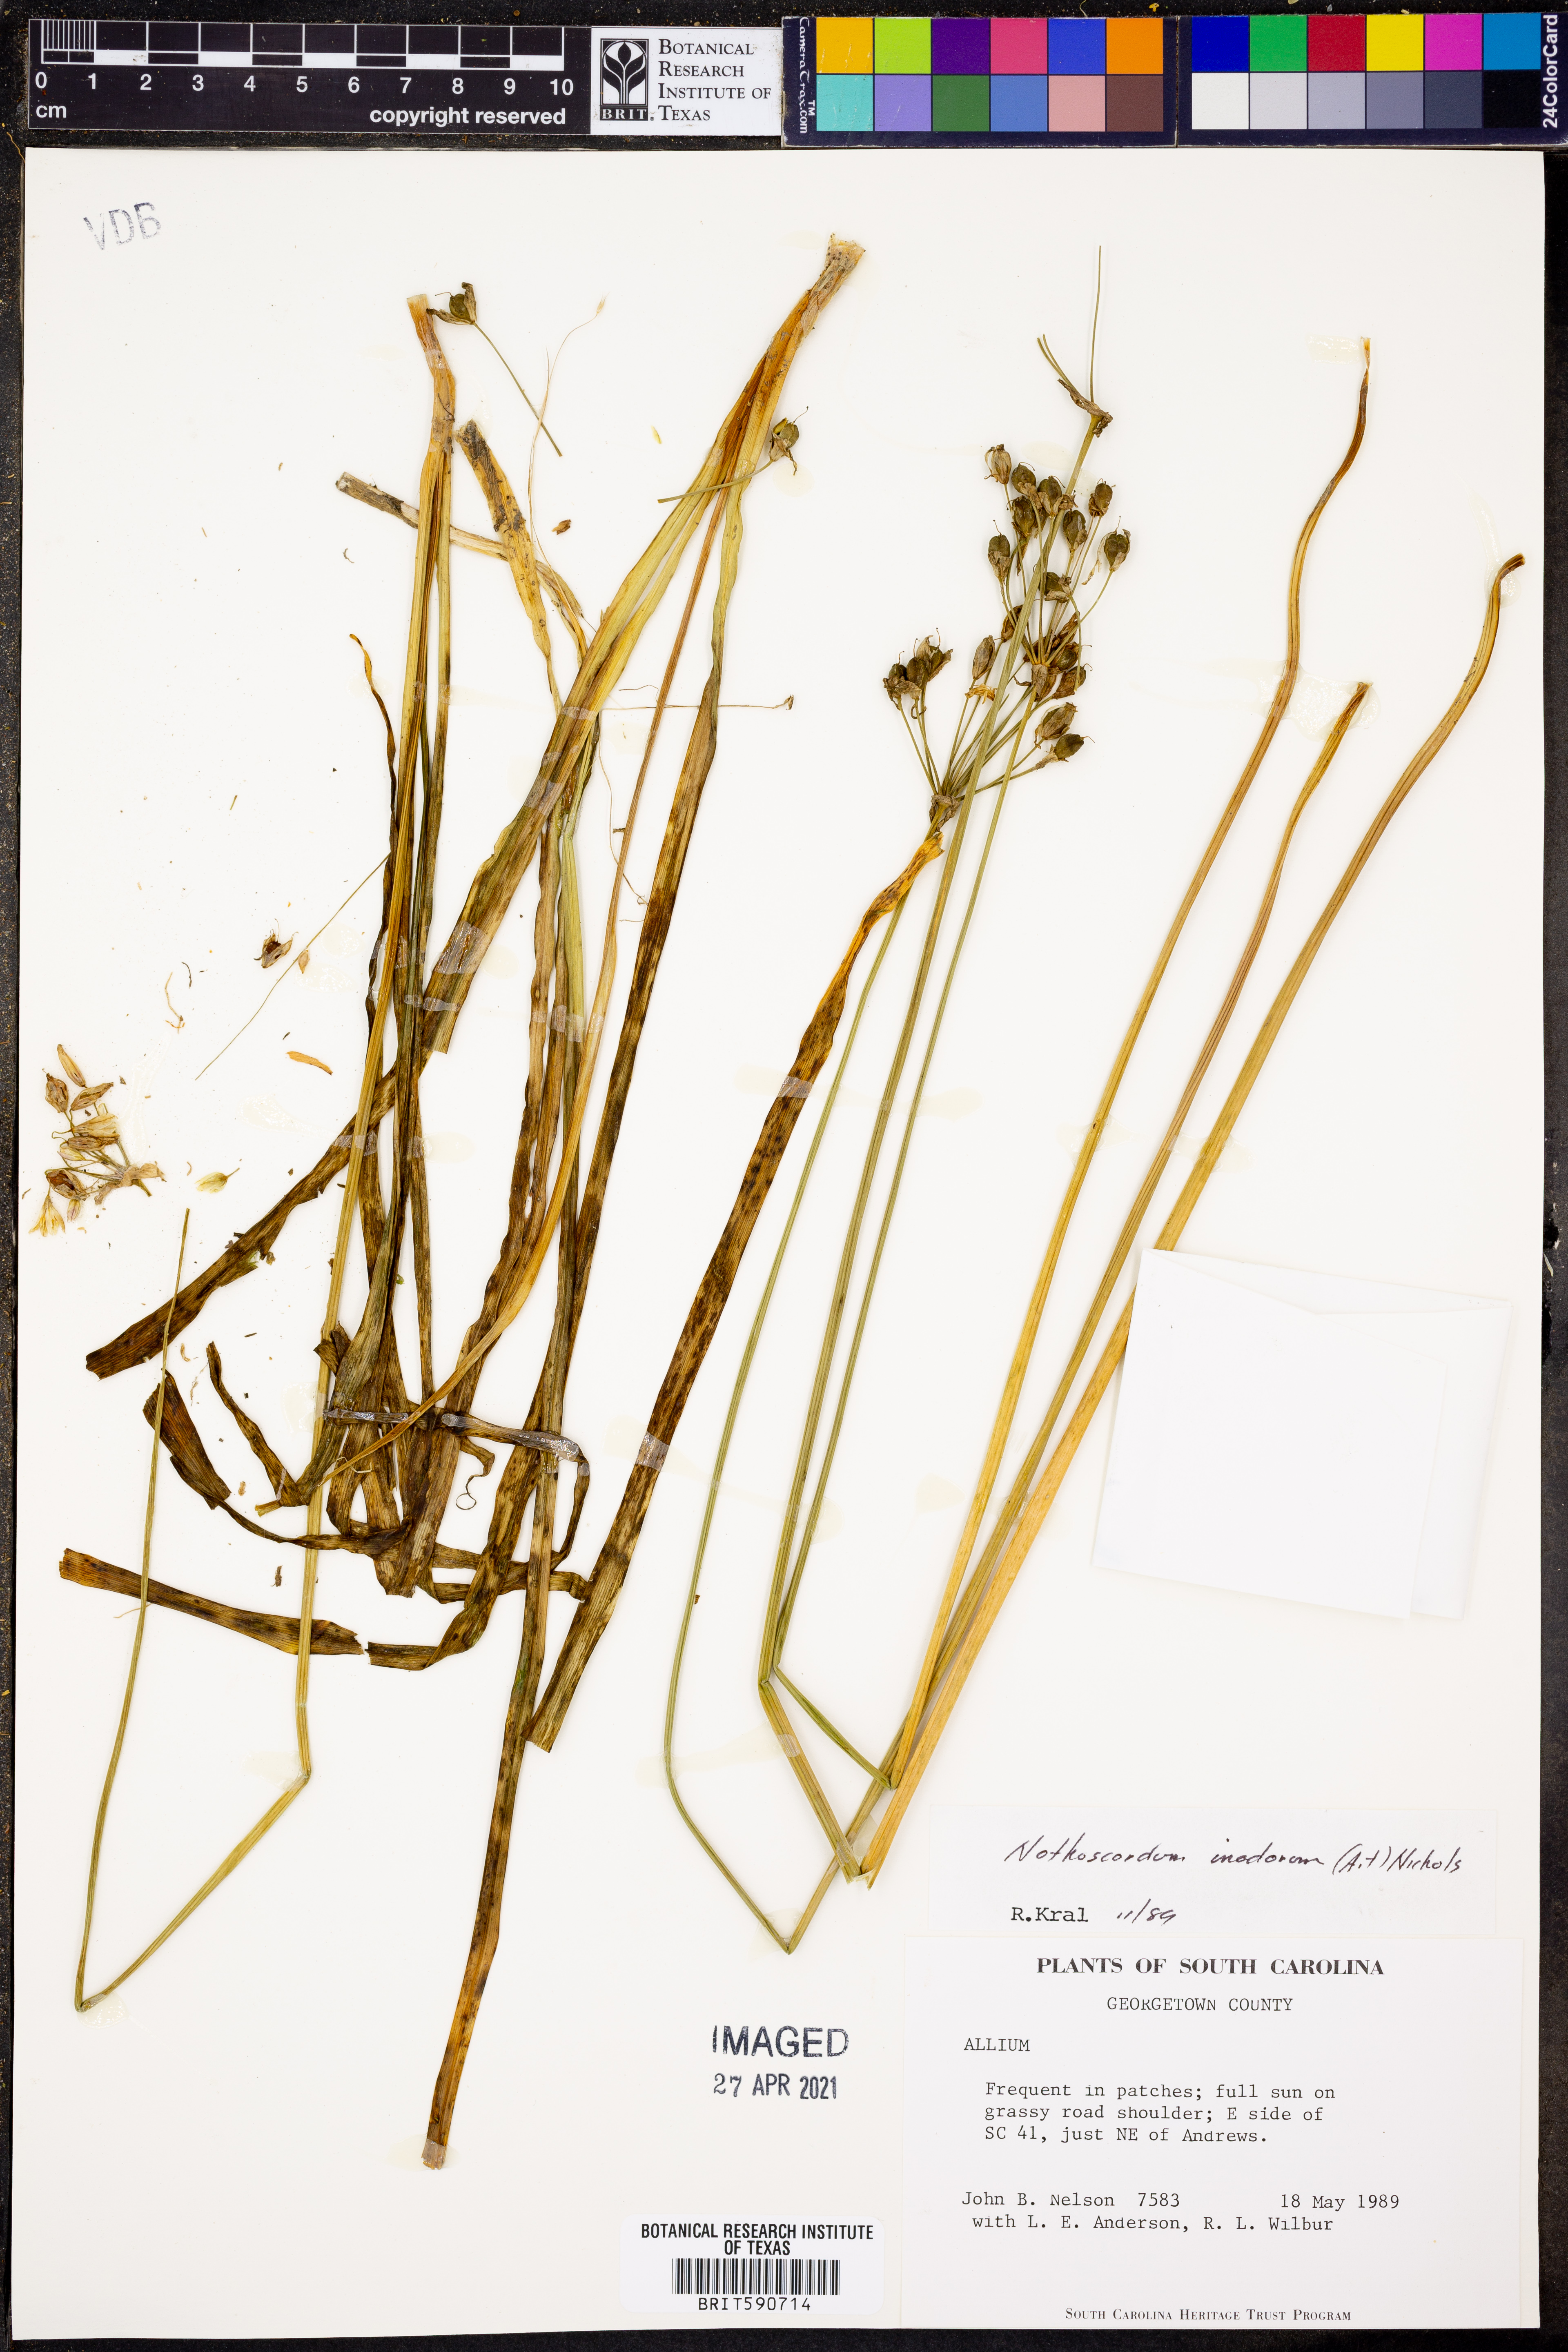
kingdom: Plantae
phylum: Tracheophyta
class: Liliopsida
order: Asparagales
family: Amaryllidaceae
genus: Allium
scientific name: Allium neapolitanum
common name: Neapolitan garlic
